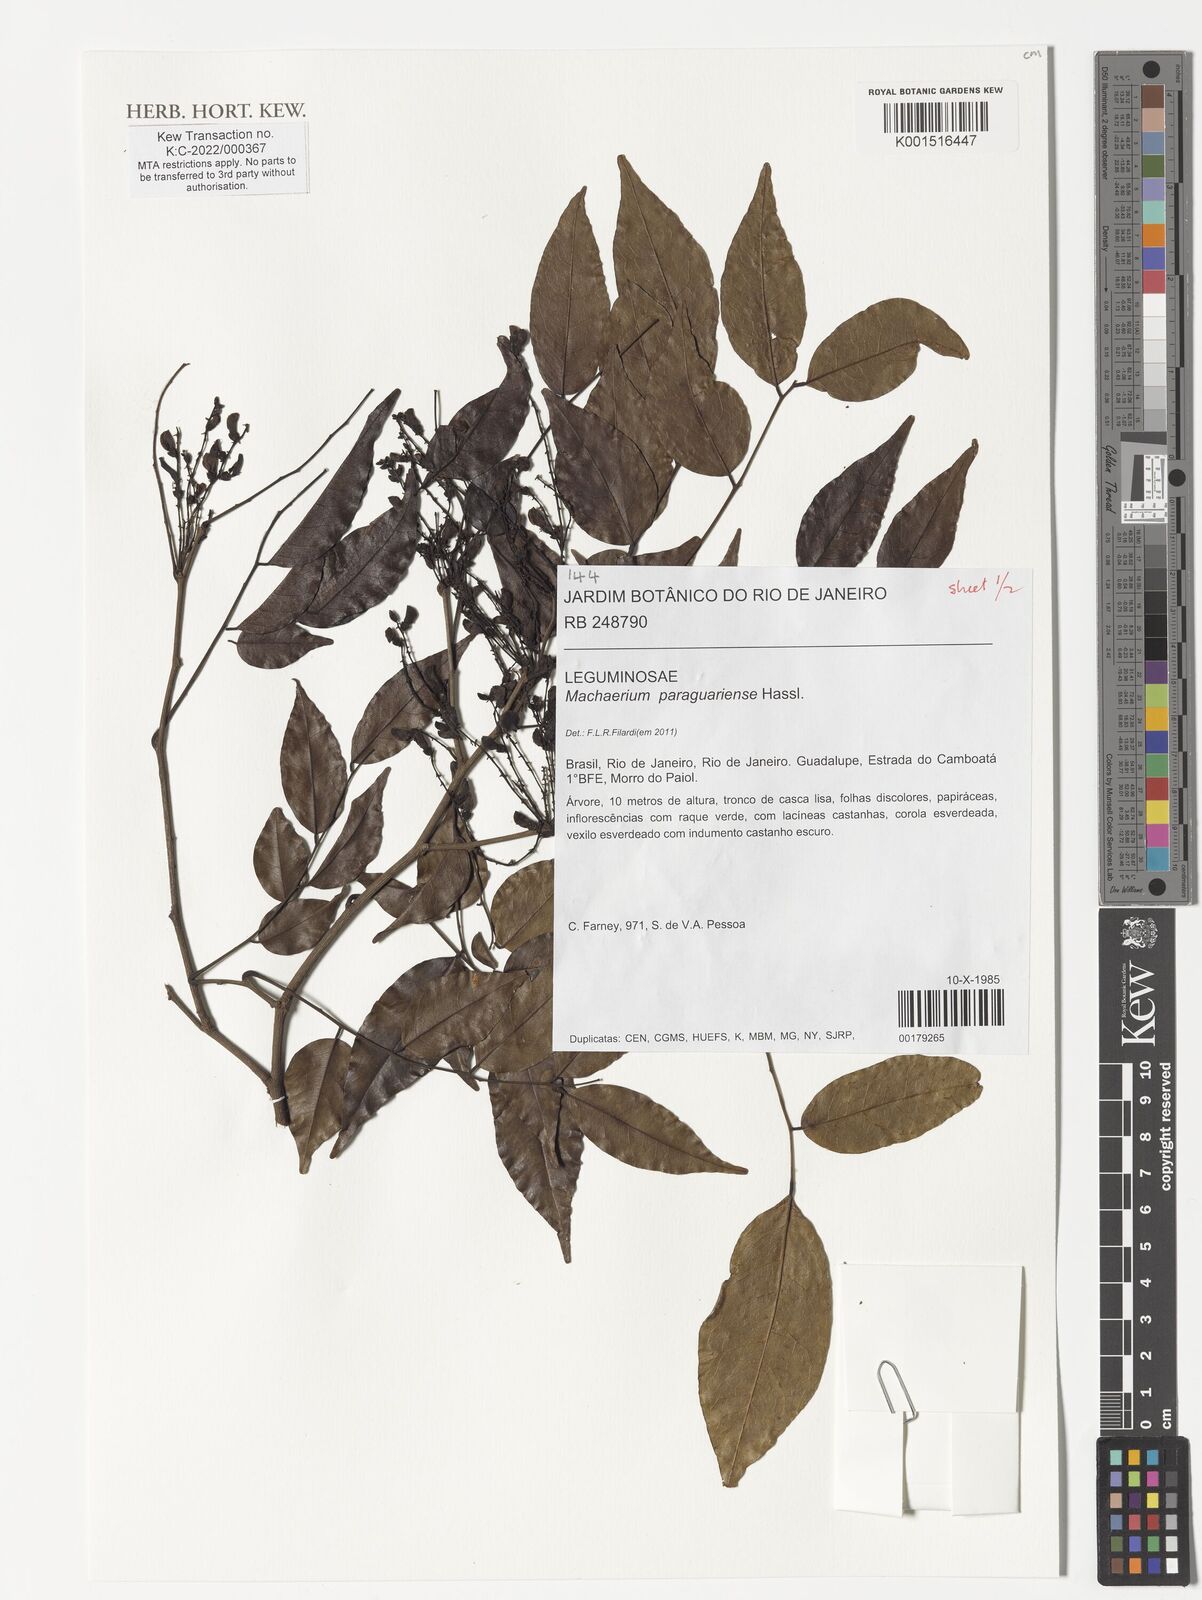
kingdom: Plantae
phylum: Tracheophyta
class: Magnoliopsida
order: Fabales
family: Fabaceae
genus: Machaerium
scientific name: Machaerium oblongifolium
